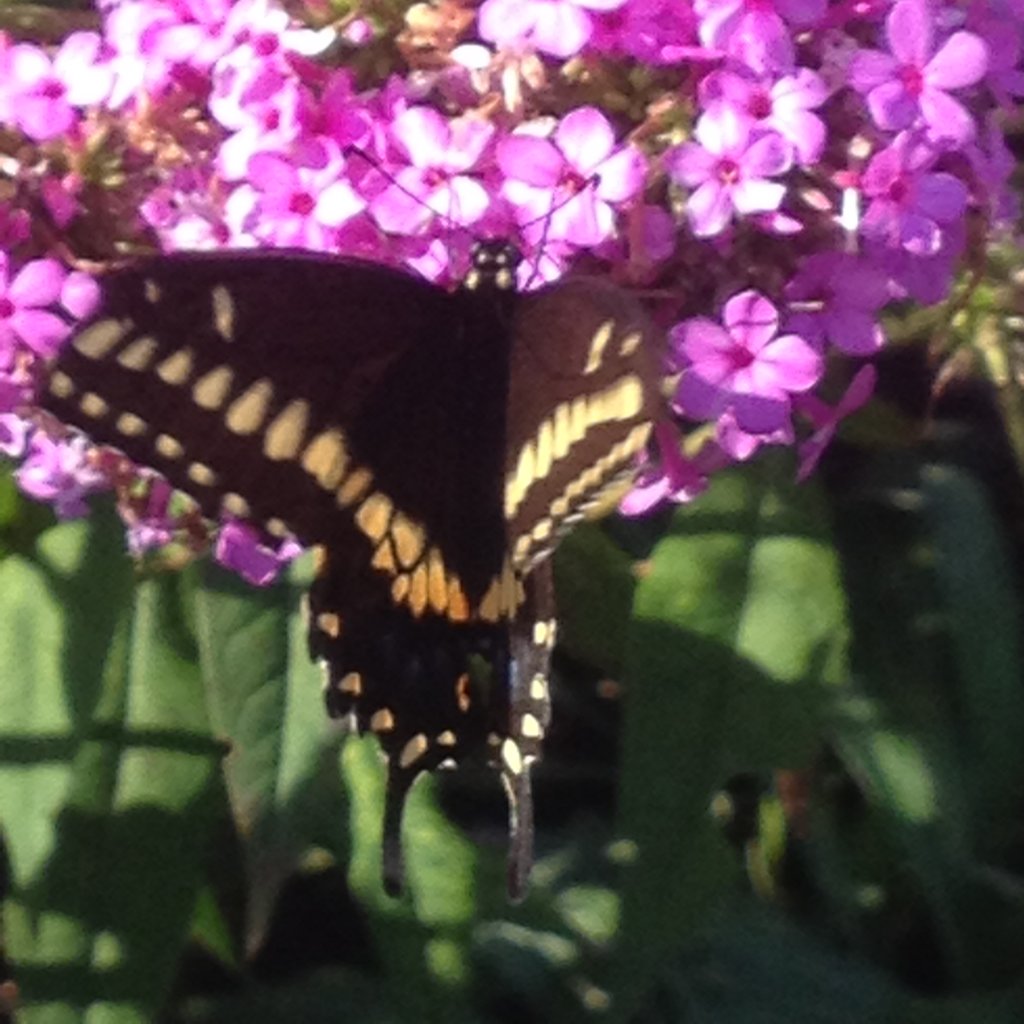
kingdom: Animalia
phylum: Arthropoda
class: Insecta
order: Lepidoptera
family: Papilionidae
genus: Papilio
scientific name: Papilio polyxenes
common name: Black Swallowtail
